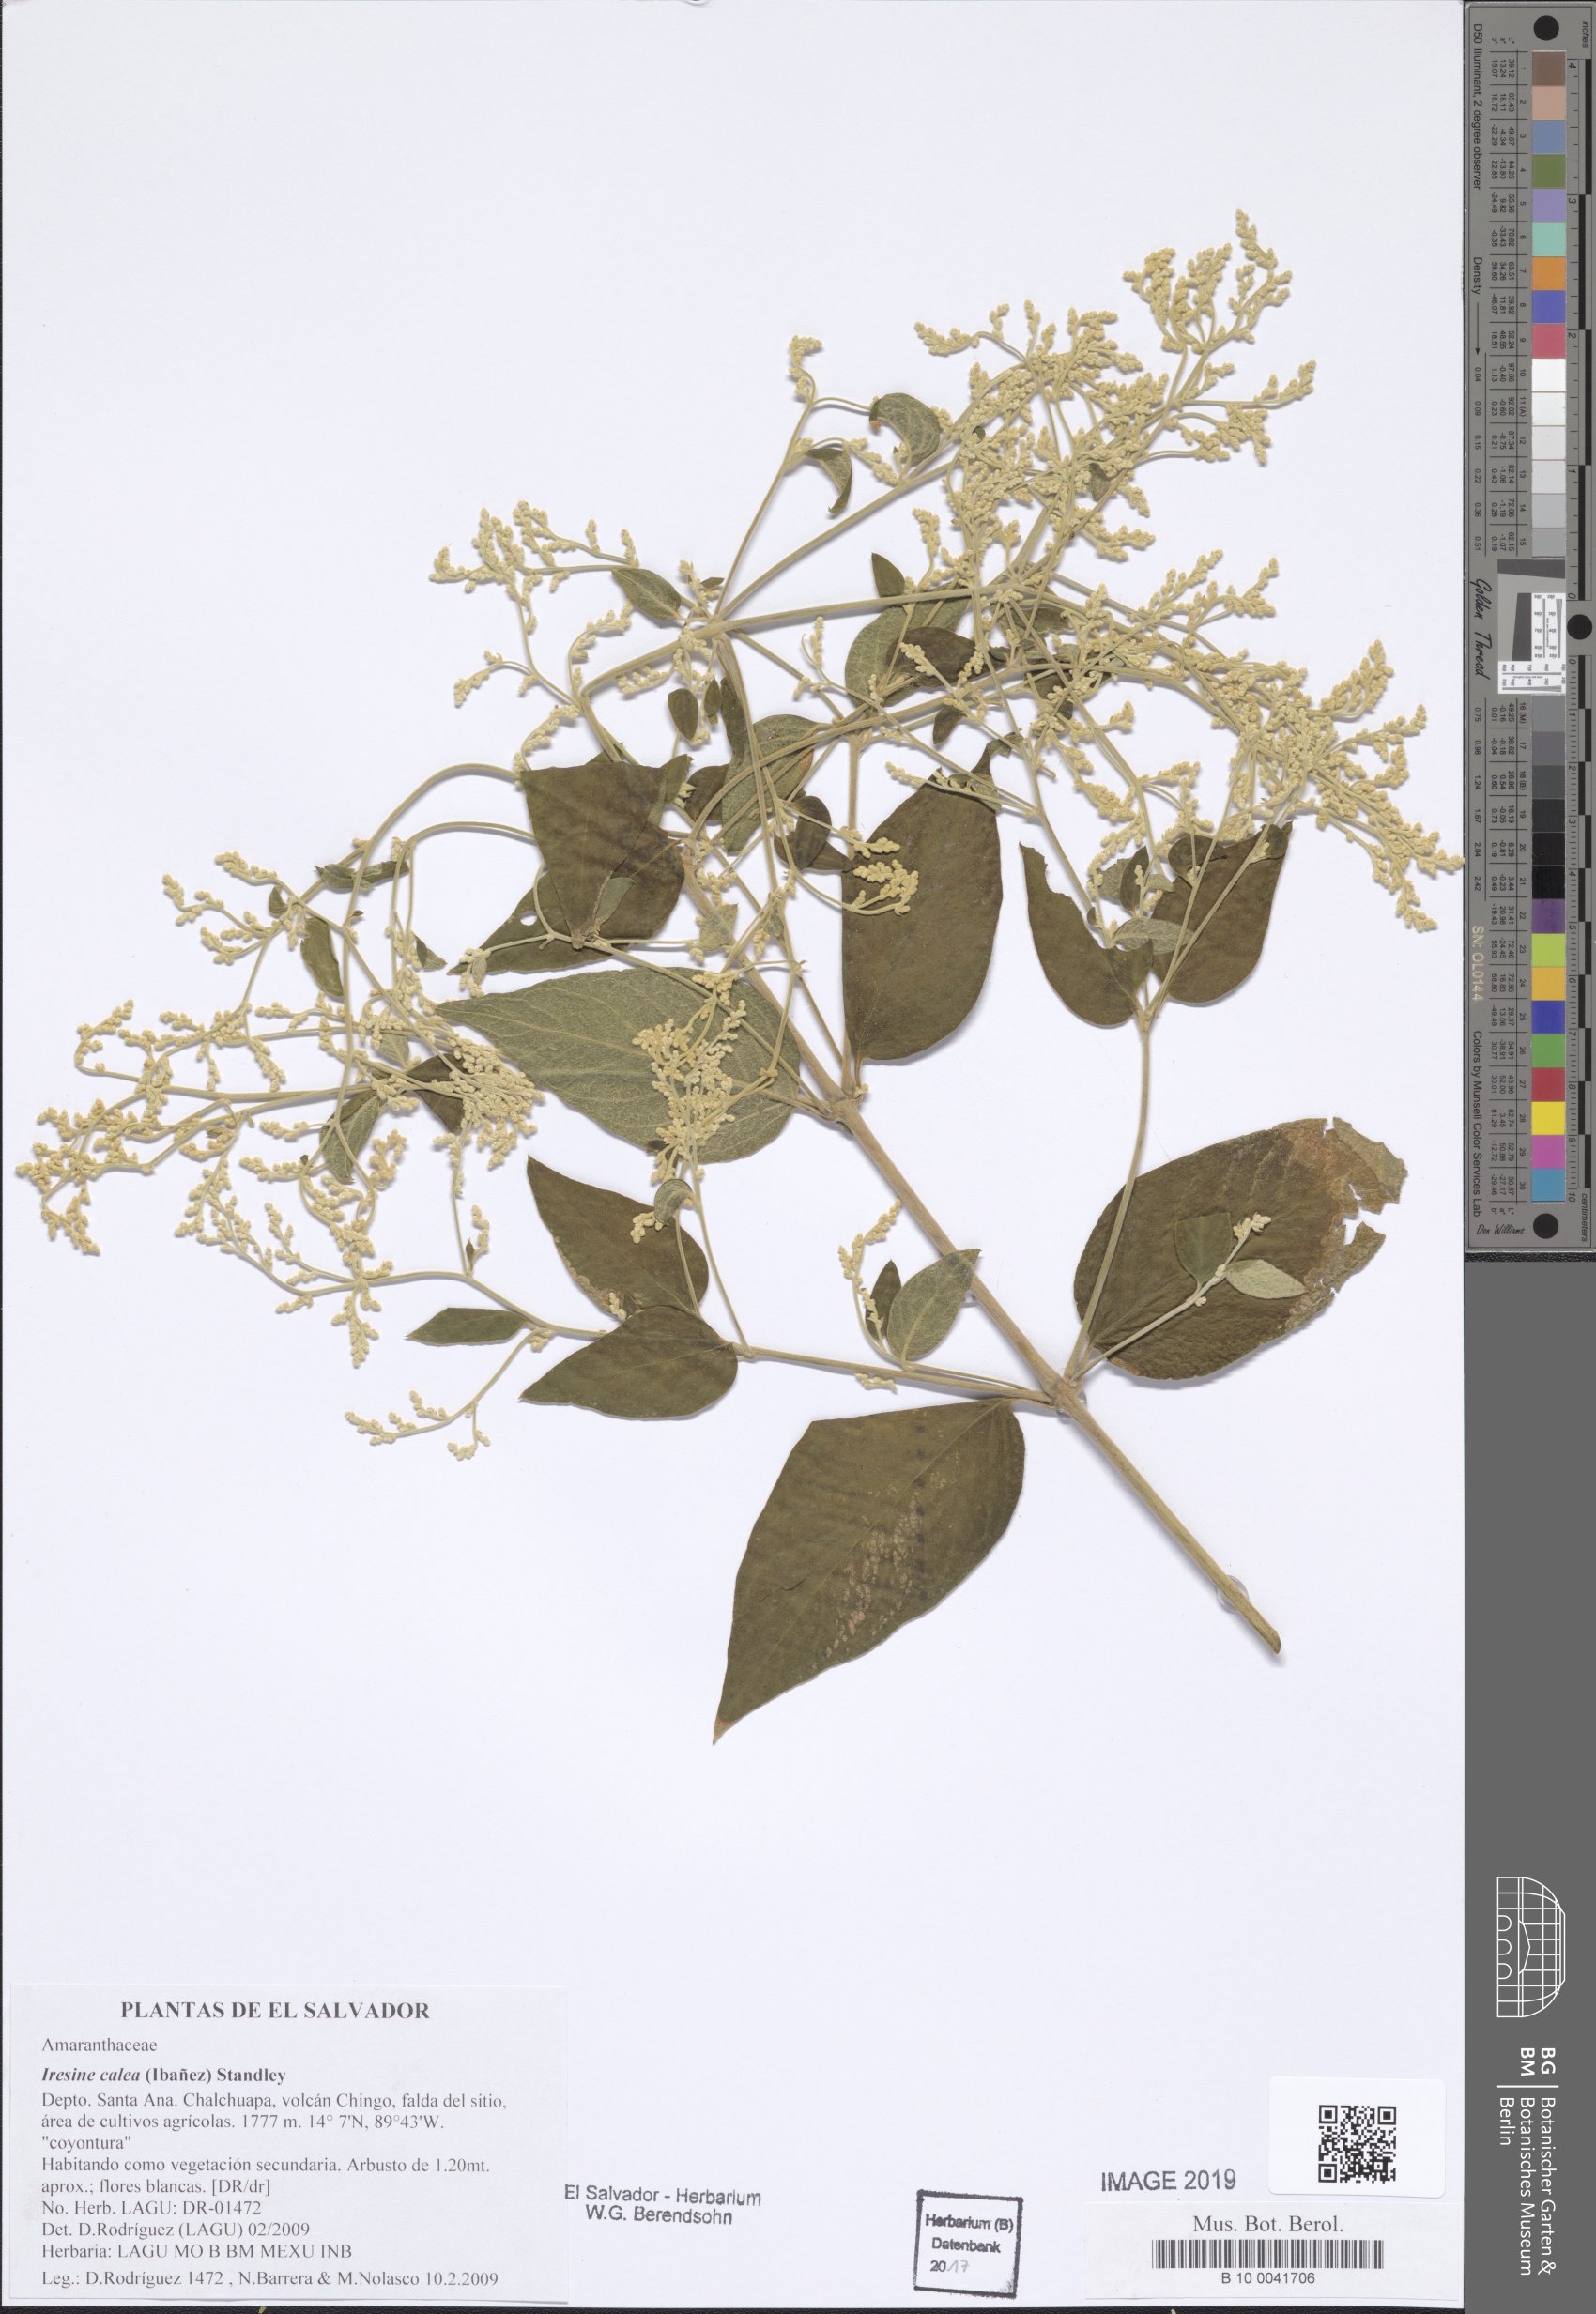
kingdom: Plantae
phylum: Tracheophyta
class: Magnoliopsida
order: Caryophyllales
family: Amaranthaceae
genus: Iresine
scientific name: Iresine latifolia
